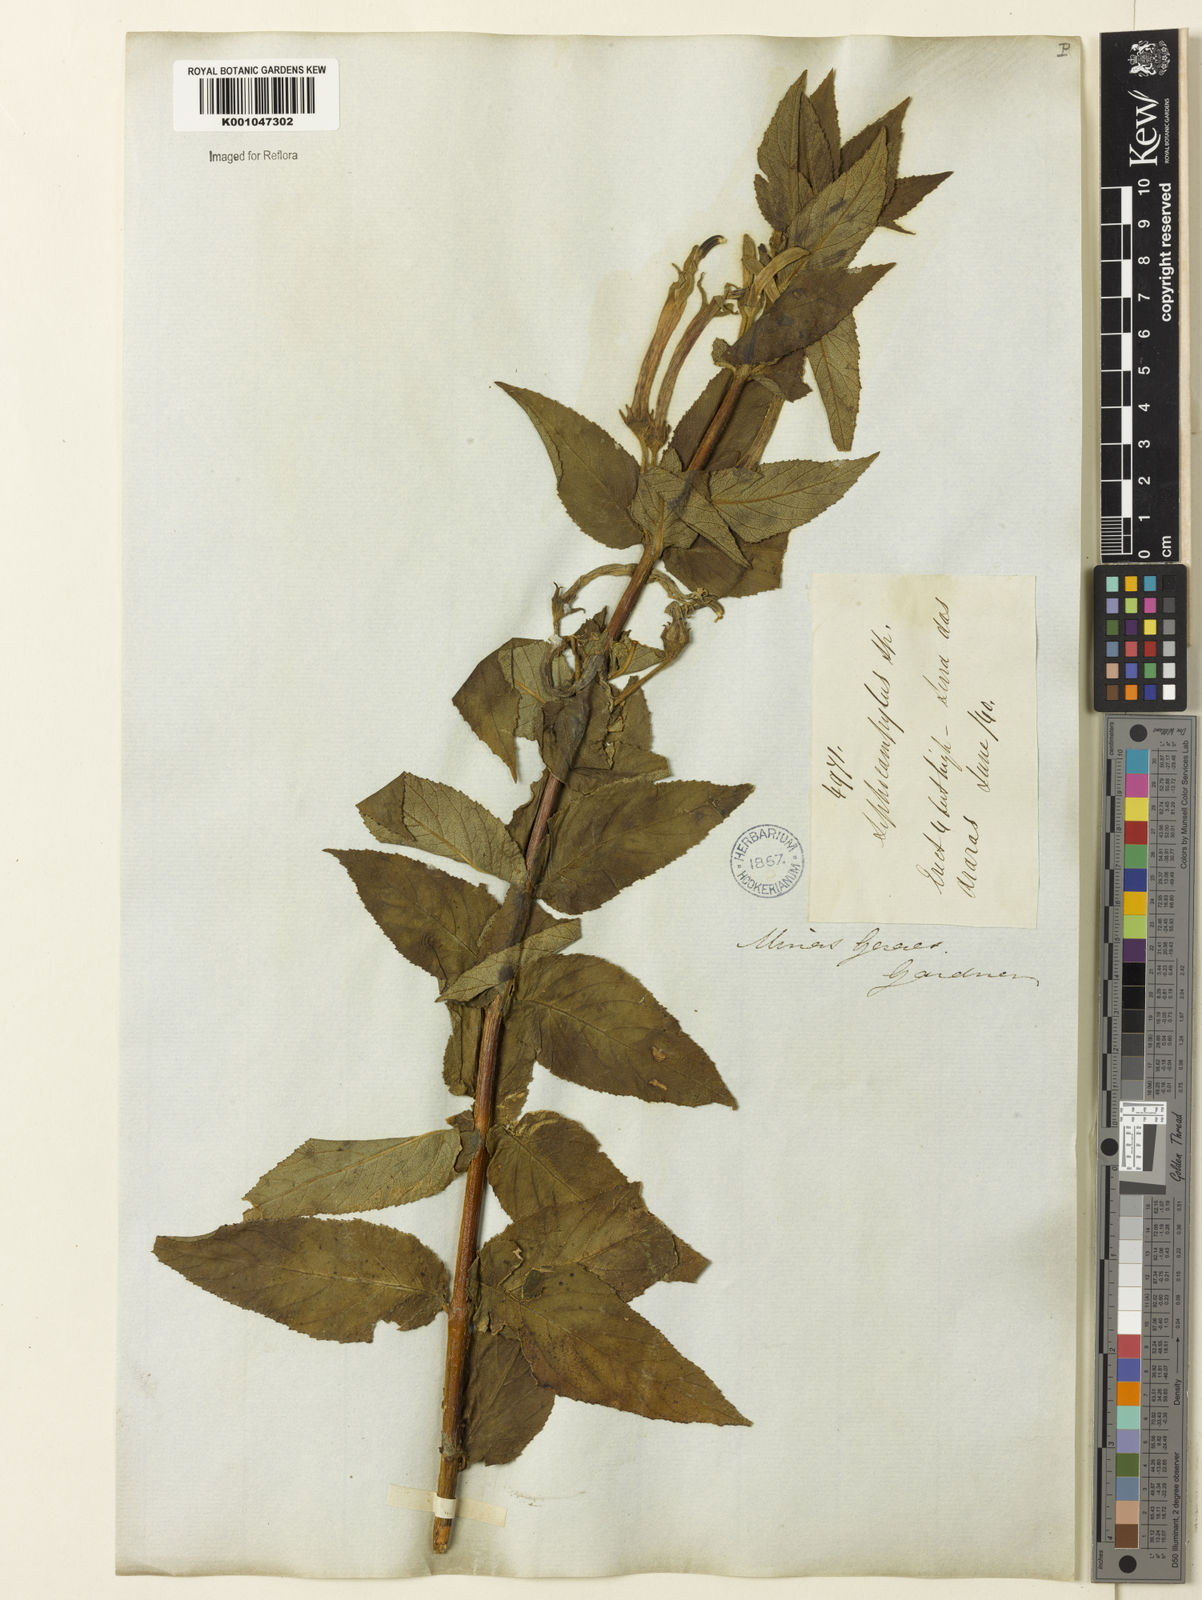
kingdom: Plantae
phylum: Tracheophyta
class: Magnoliopsida
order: Asterales
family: Campanulaceae
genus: Siphocampylus
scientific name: Siphocampylus nitidus
